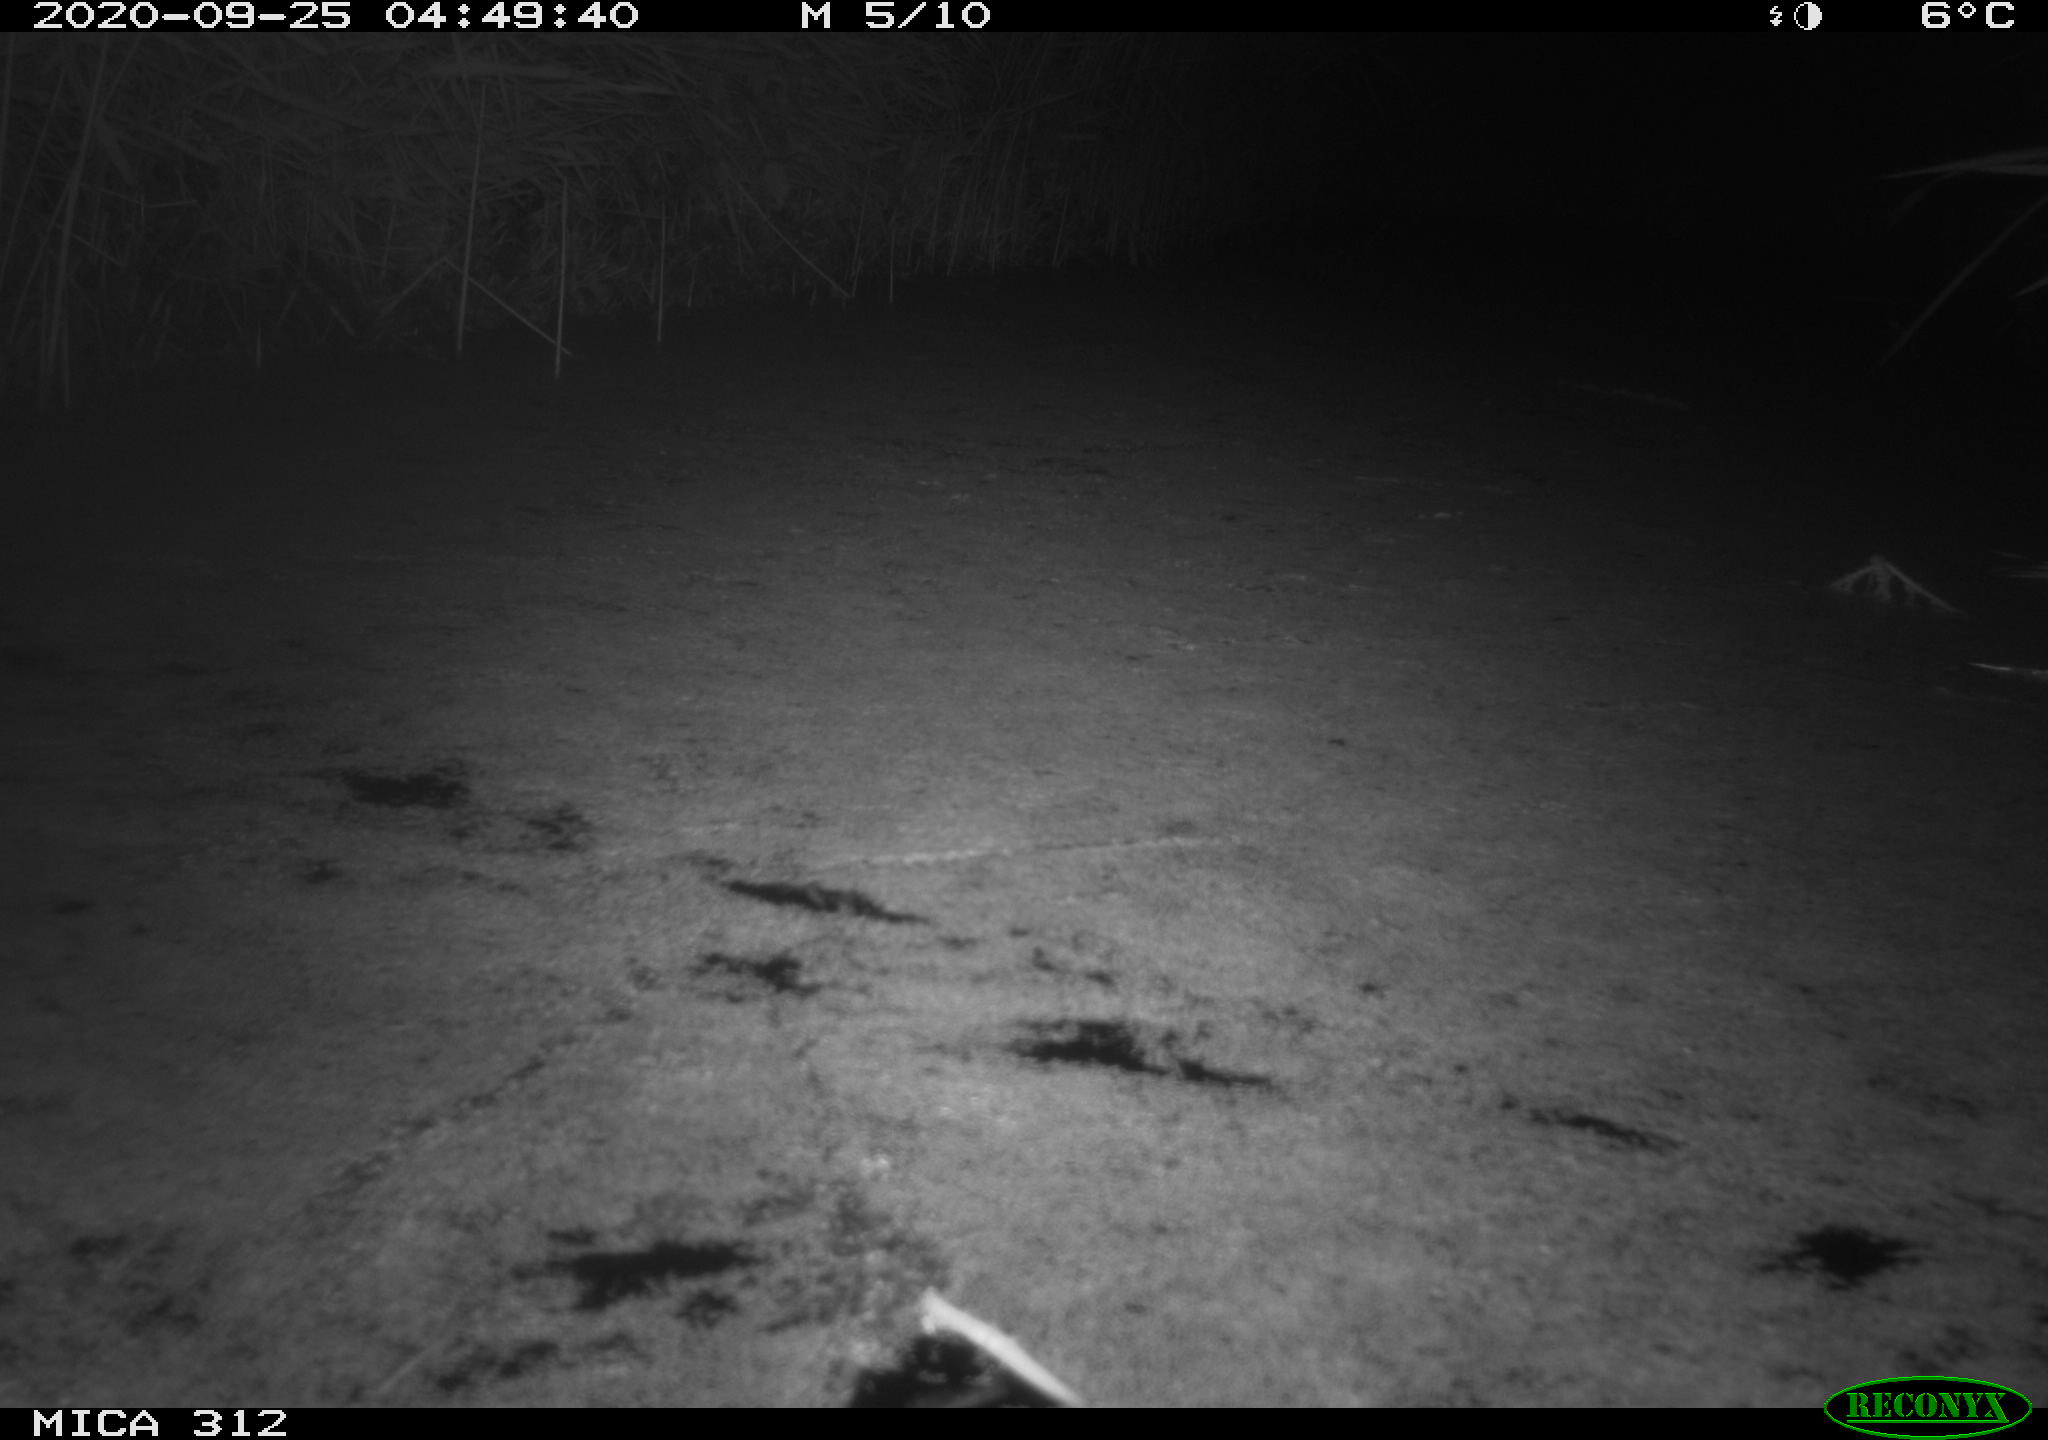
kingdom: Animalia
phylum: Chordata
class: Mammalia
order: Rodentia
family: Cricetidae
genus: Ondatra
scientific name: Ondatra zibethicus
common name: Muskrat
